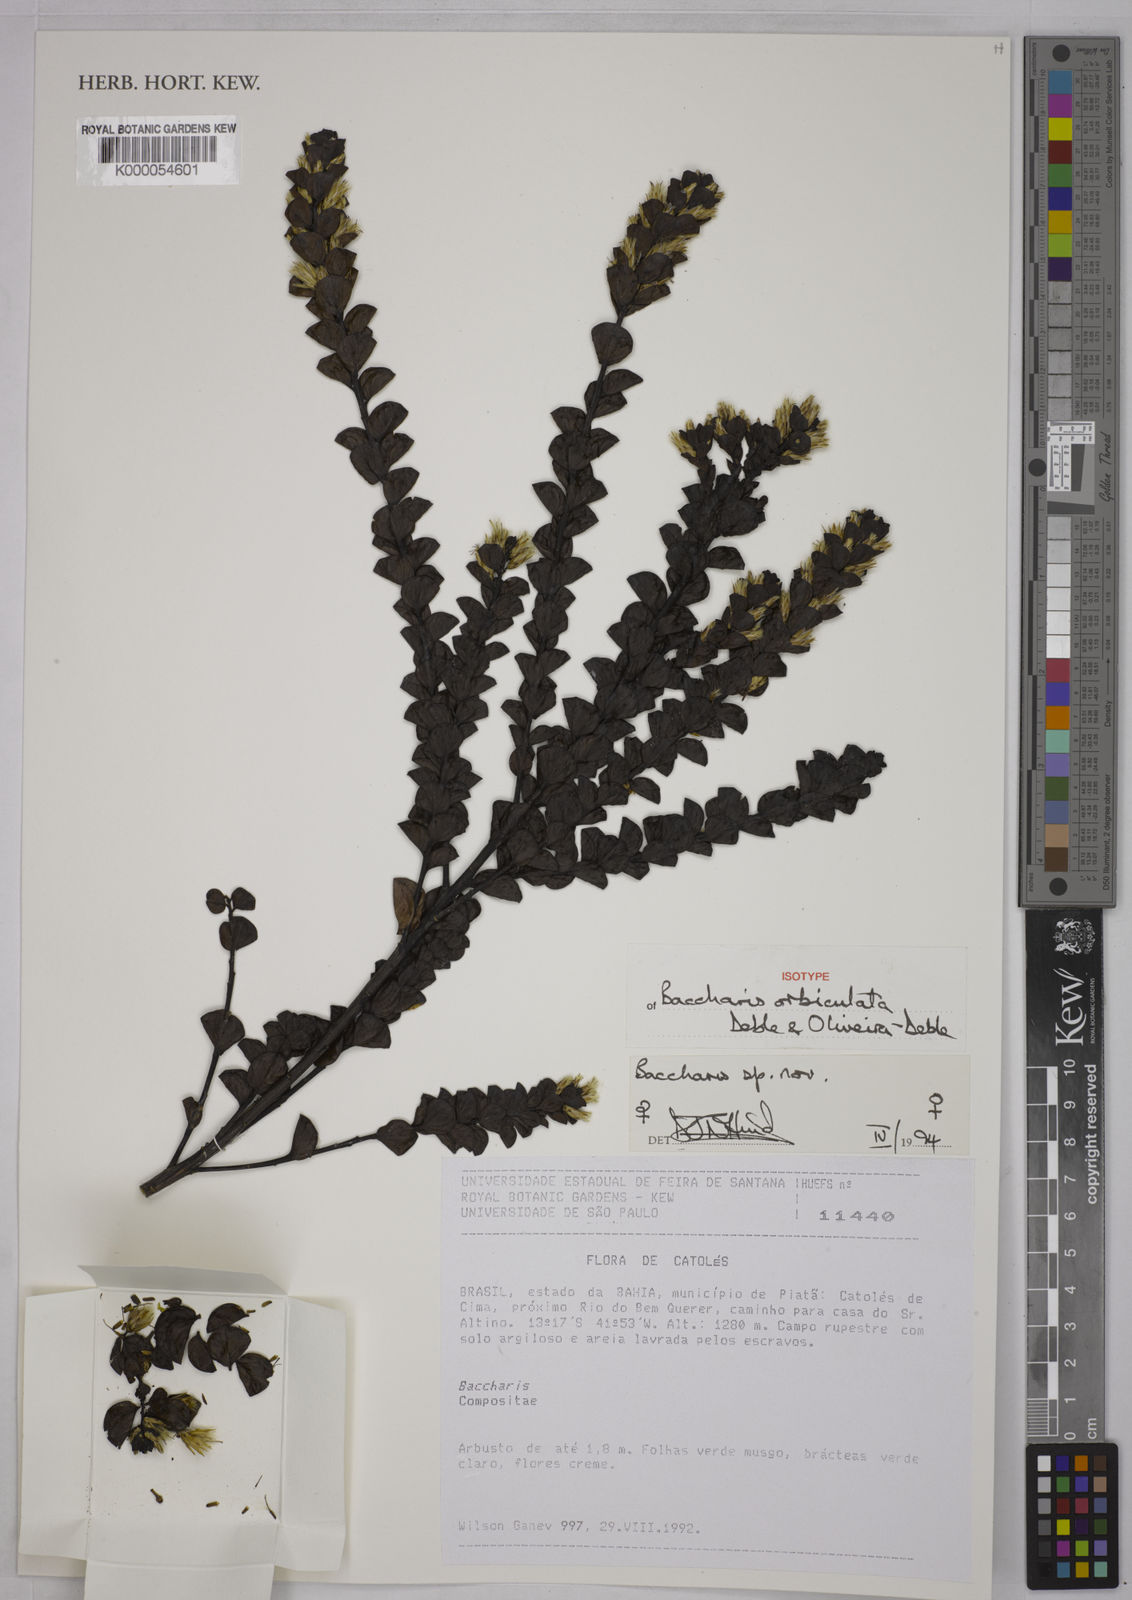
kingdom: Plantae
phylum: Tracheophyta
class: Magnoliopsida
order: Asterales
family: Asteraceae
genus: Baccharis
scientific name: Baccharis
